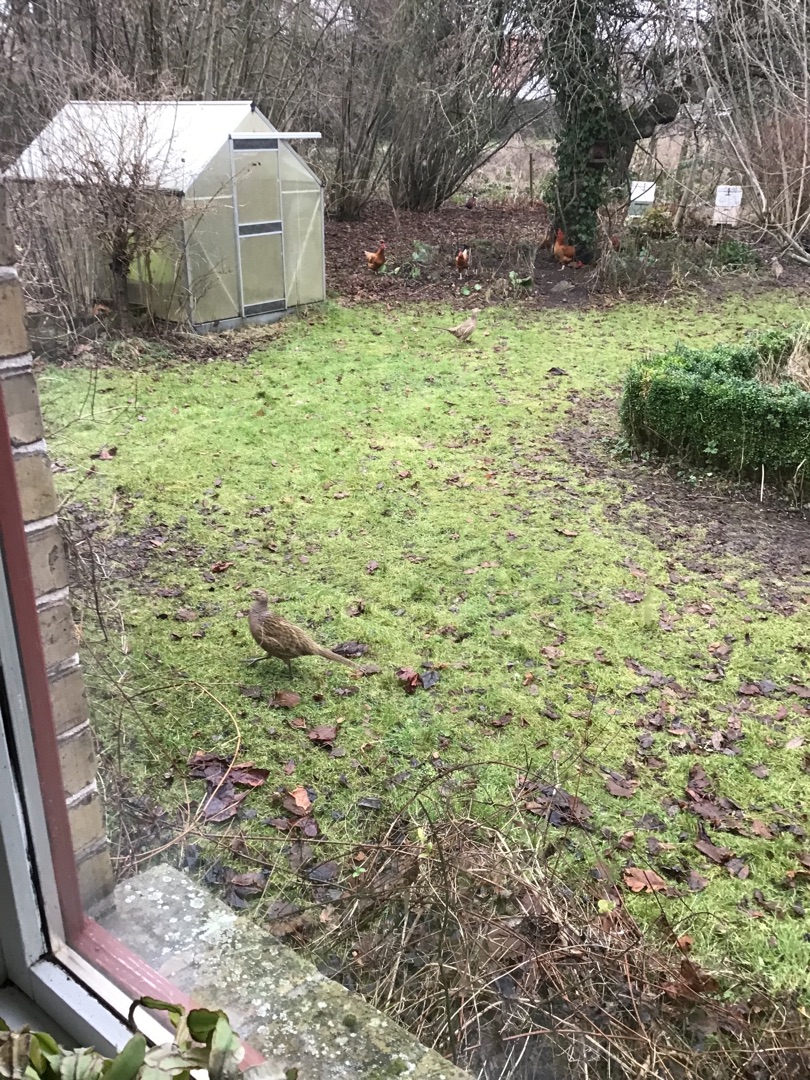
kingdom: Animalia
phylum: Chordata
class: Aves
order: Galliformes
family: Phasianidae
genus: Phasianus
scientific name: Phasianus colchicus
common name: Fasan
